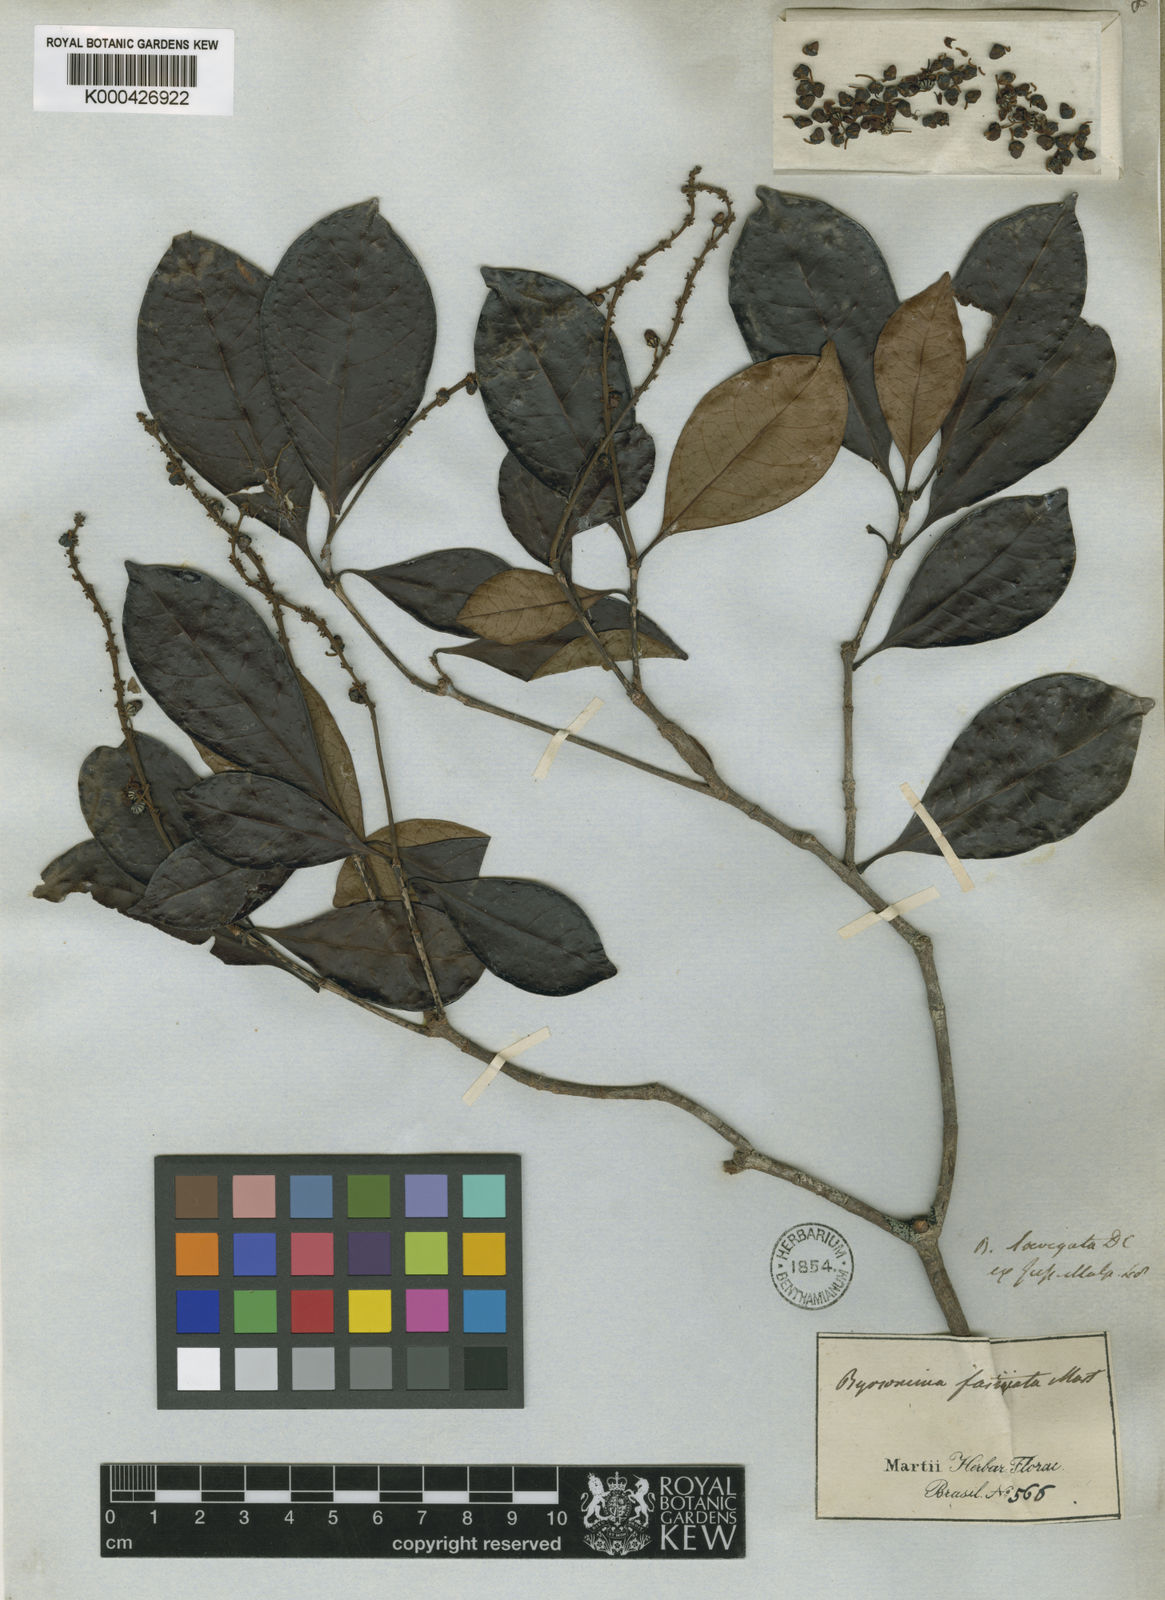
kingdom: Plantae
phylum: Tracheophyta
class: Magnoliopsida
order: Malpighiales
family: Malpighiaceae
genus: Byrsonima
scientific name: Byrsonima laevigata
